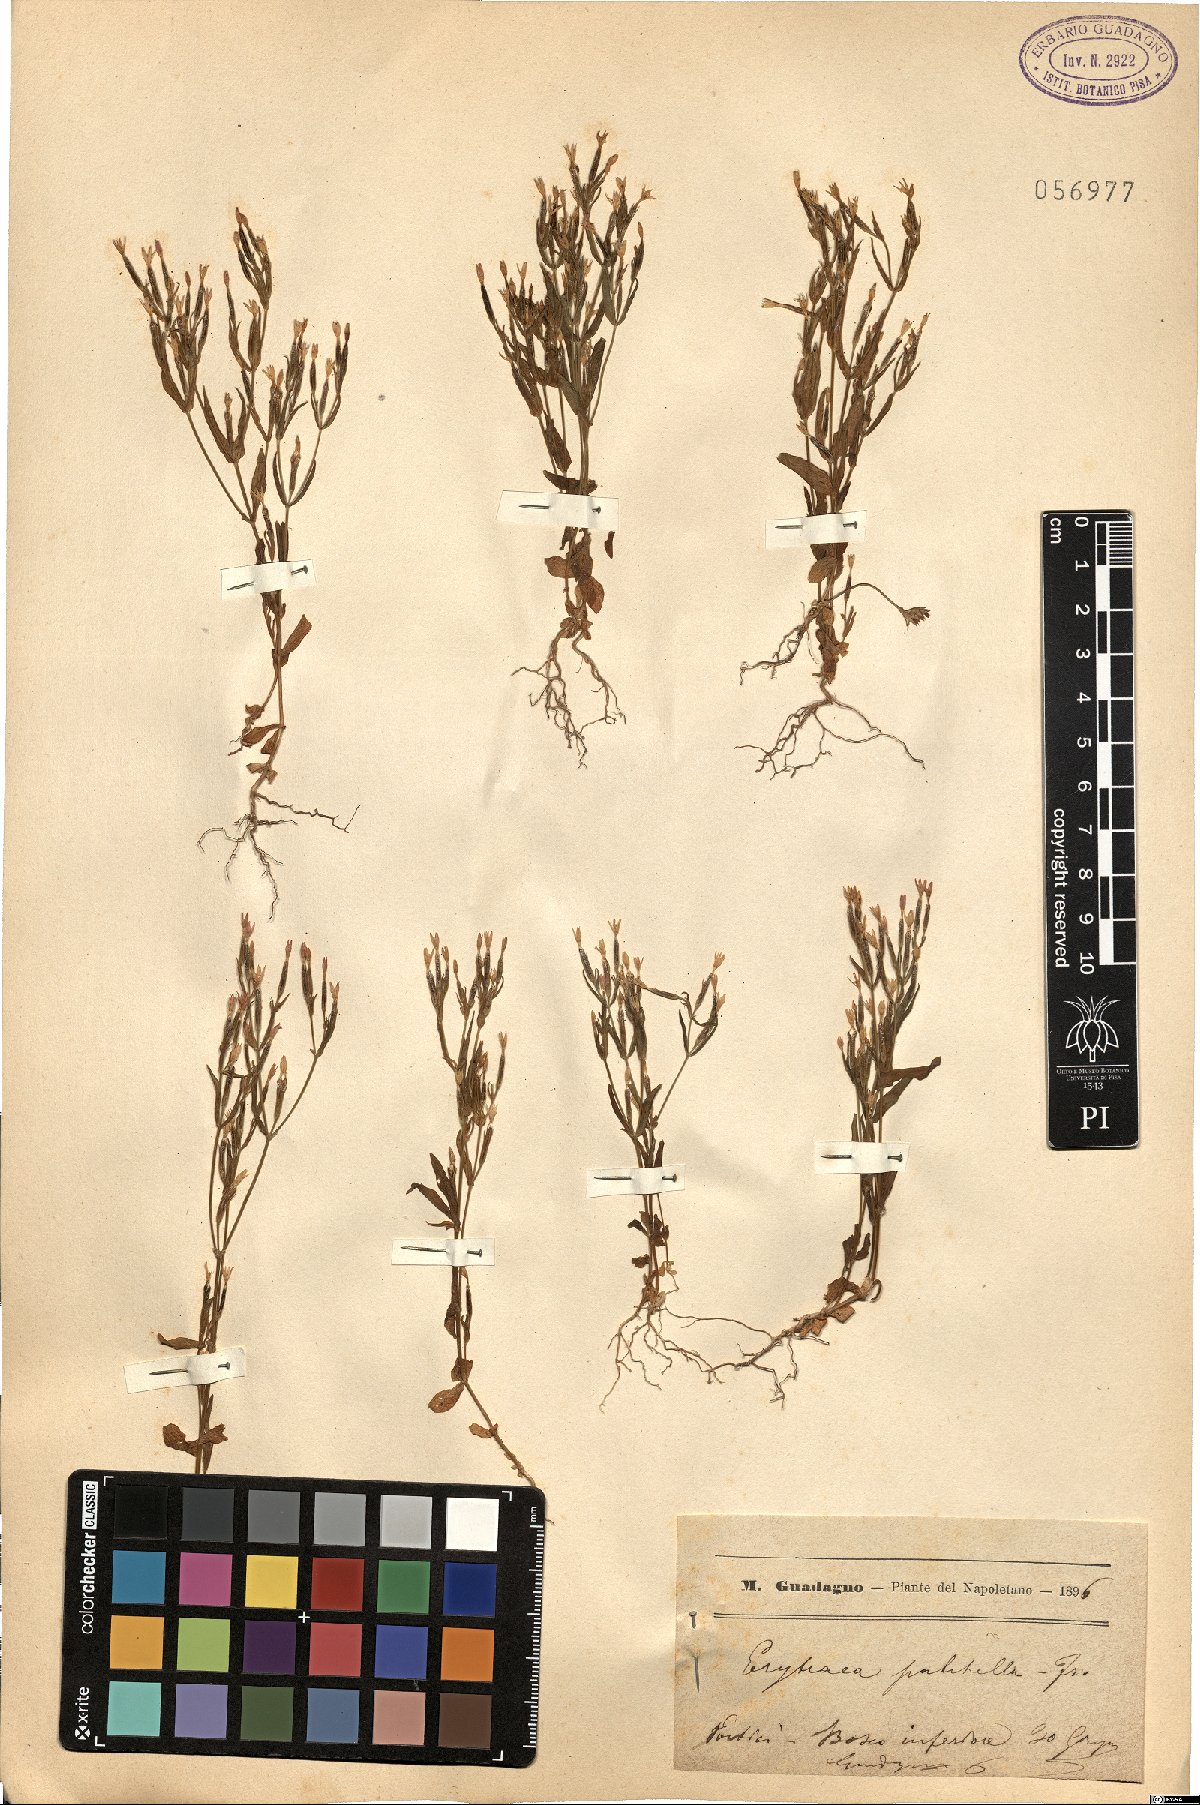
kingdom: Plantae
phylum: Tracheophyta
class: Magnoliopsida
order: Gentianales
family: Gentianaceae
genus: Centaurium
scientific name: Centaurium pulchellum
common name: Lesser centaury
